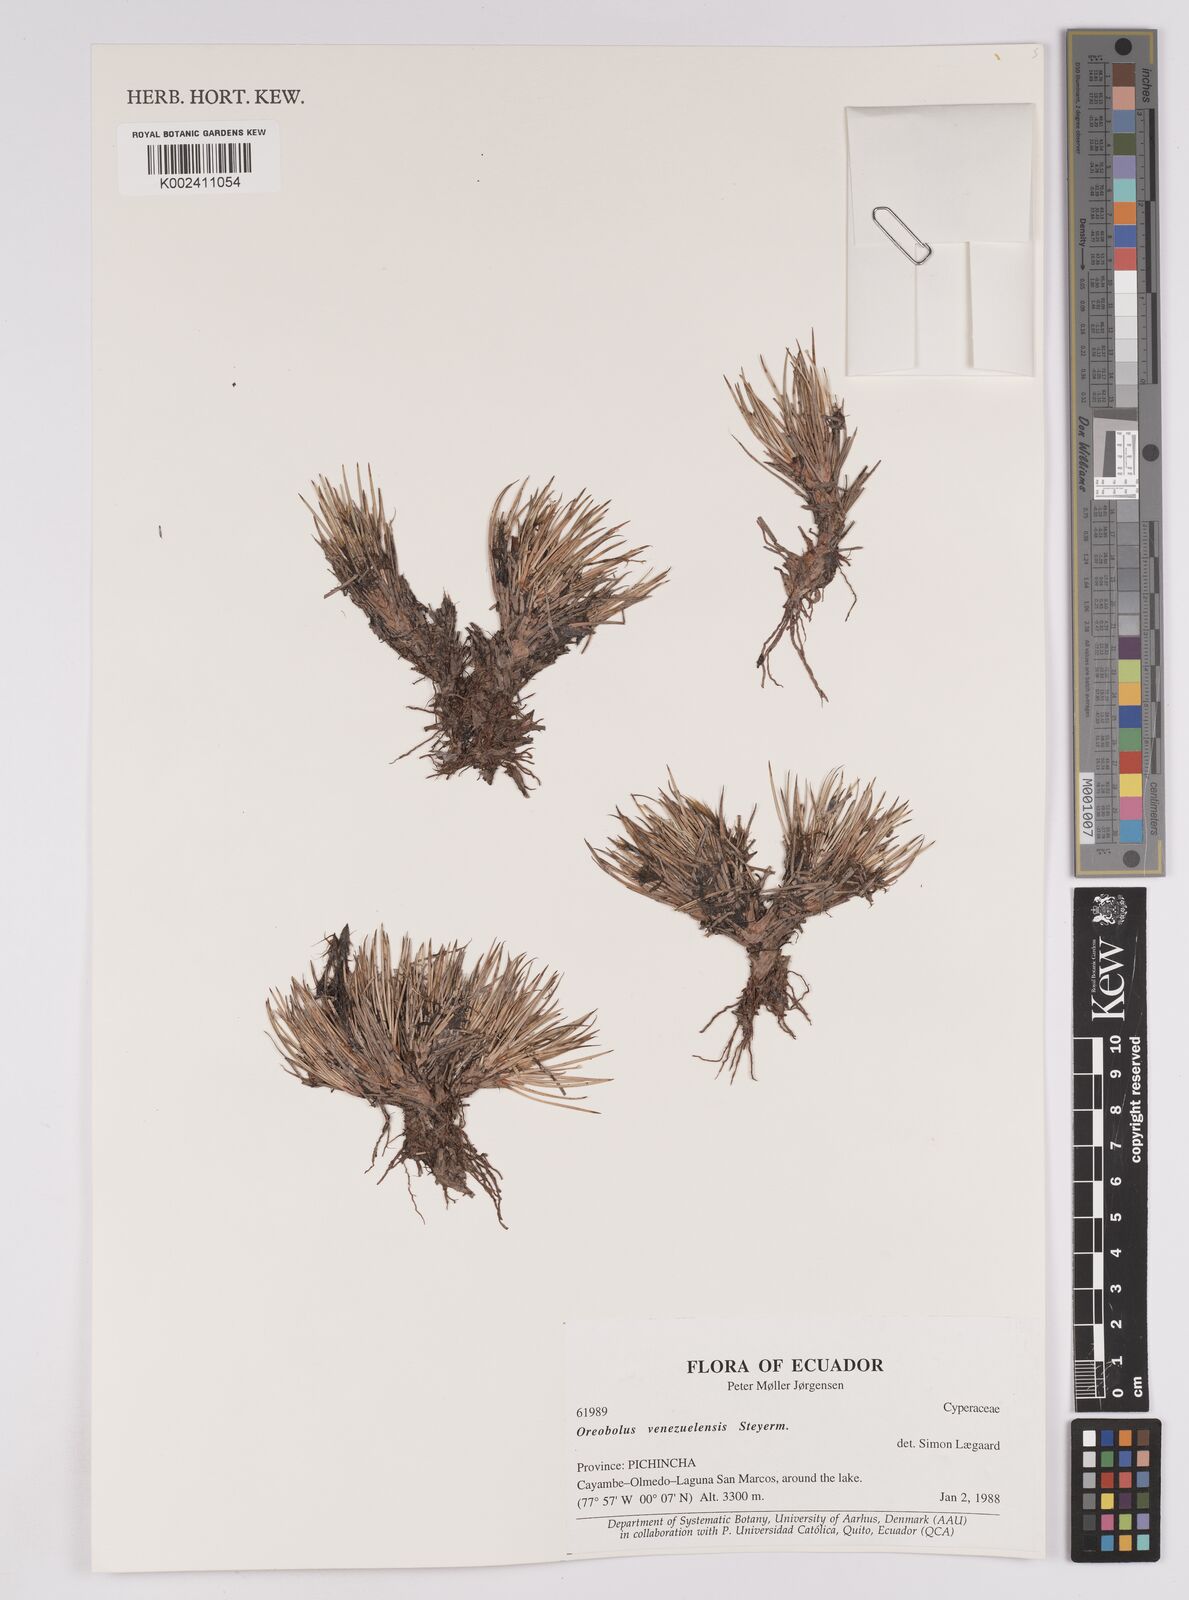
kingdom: Plantae
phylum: Tracheophyta
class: Liliopsida
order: Poales
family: Cyperaceae
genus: Oreobolus
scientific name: Oreobolus venezuelensis
